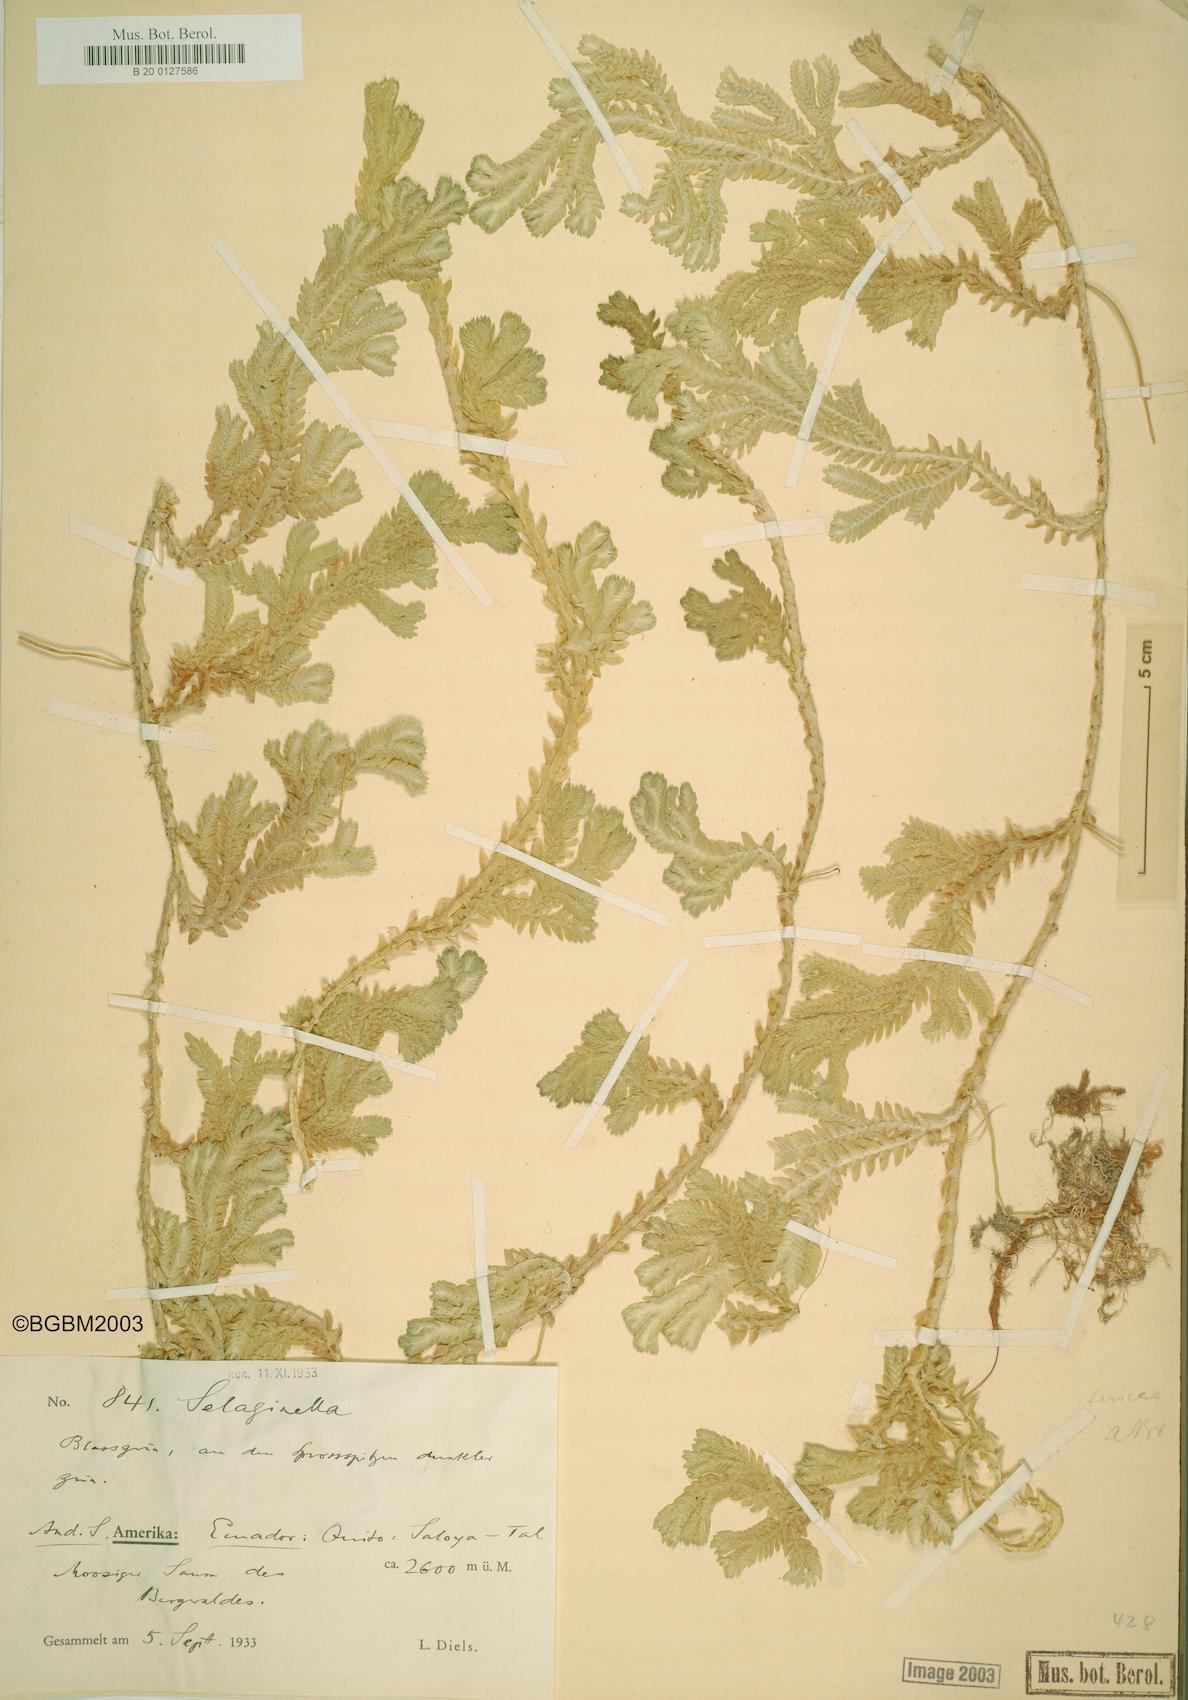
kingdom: Plantae
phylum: Tracheophyta
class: Lycopodiopsida
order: Selaginellales
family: Selaginellaceae
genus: Selaginella
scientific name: Selaginella sericea
